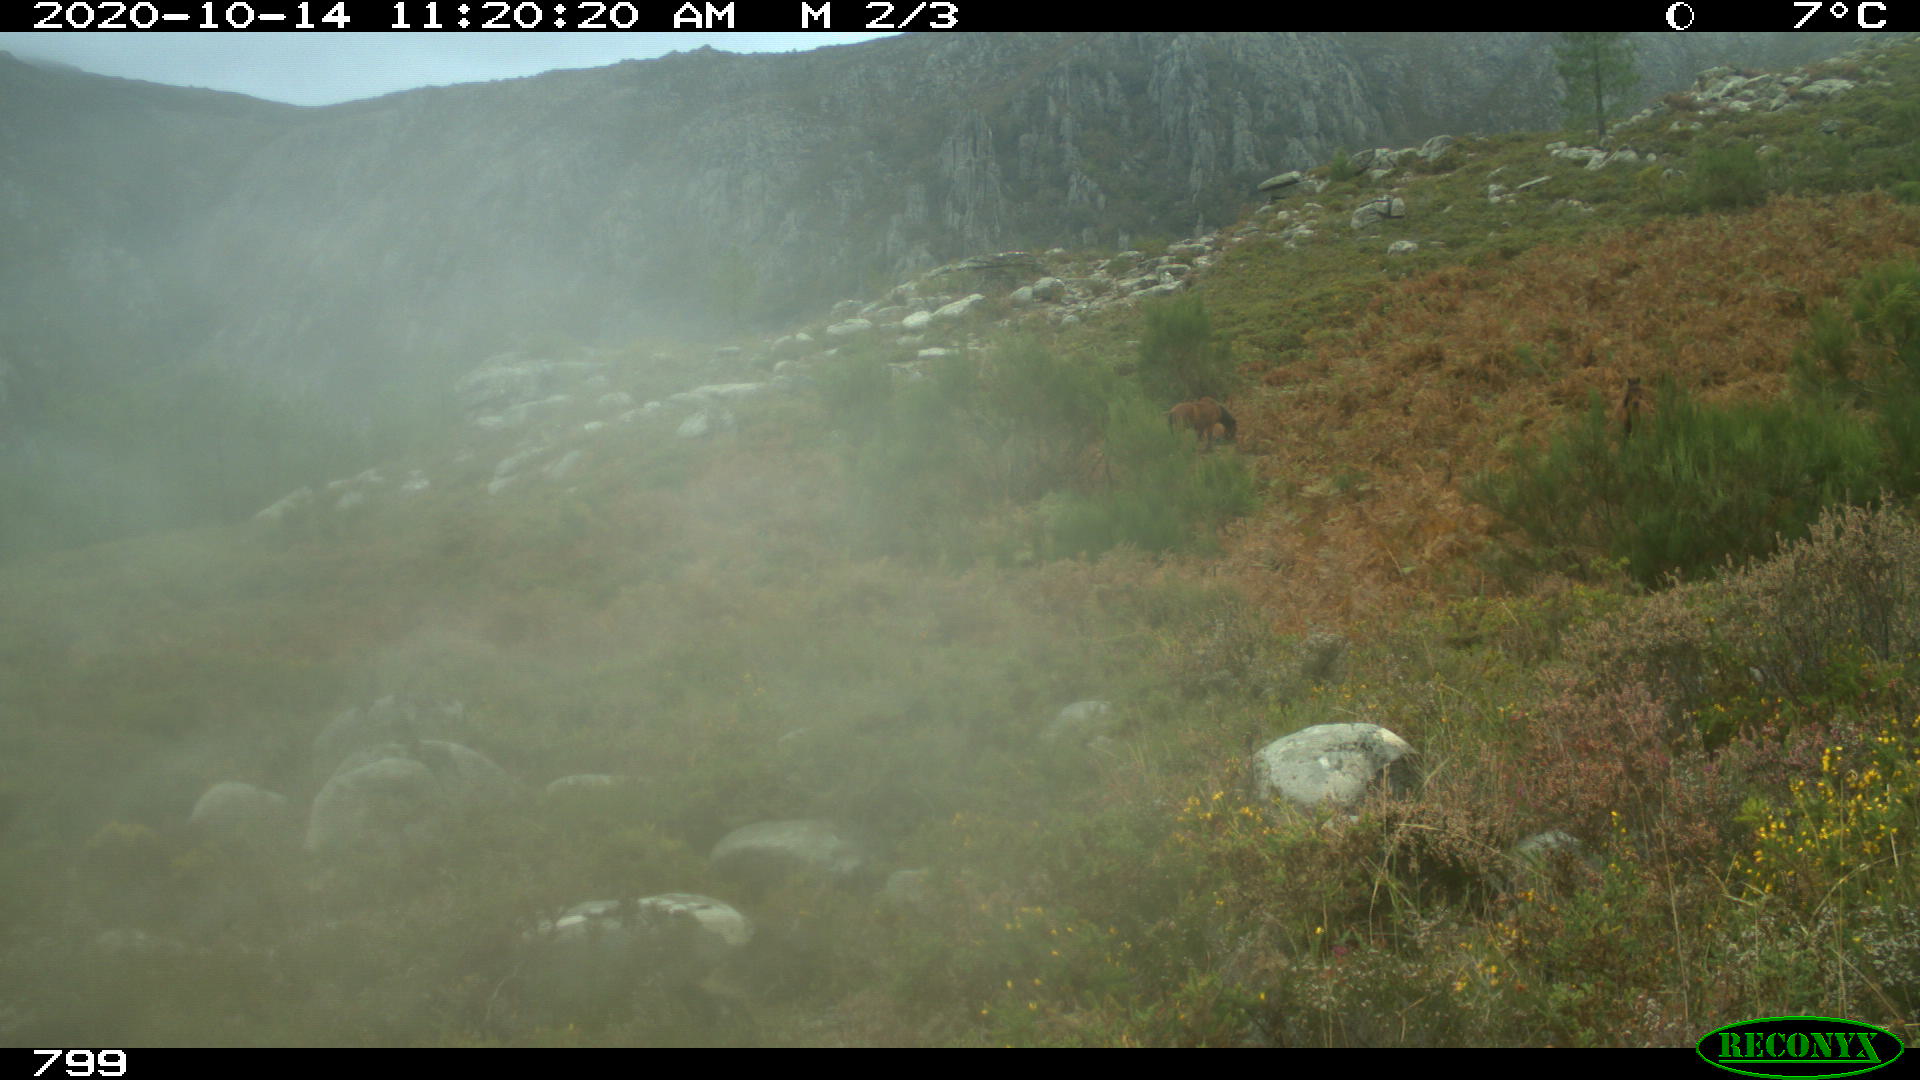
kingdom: Animalia
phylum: Chordata
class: Mammalia
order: Perissodactyla
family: Equidae
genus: Equus
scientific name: Equus caballus
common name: Horse
